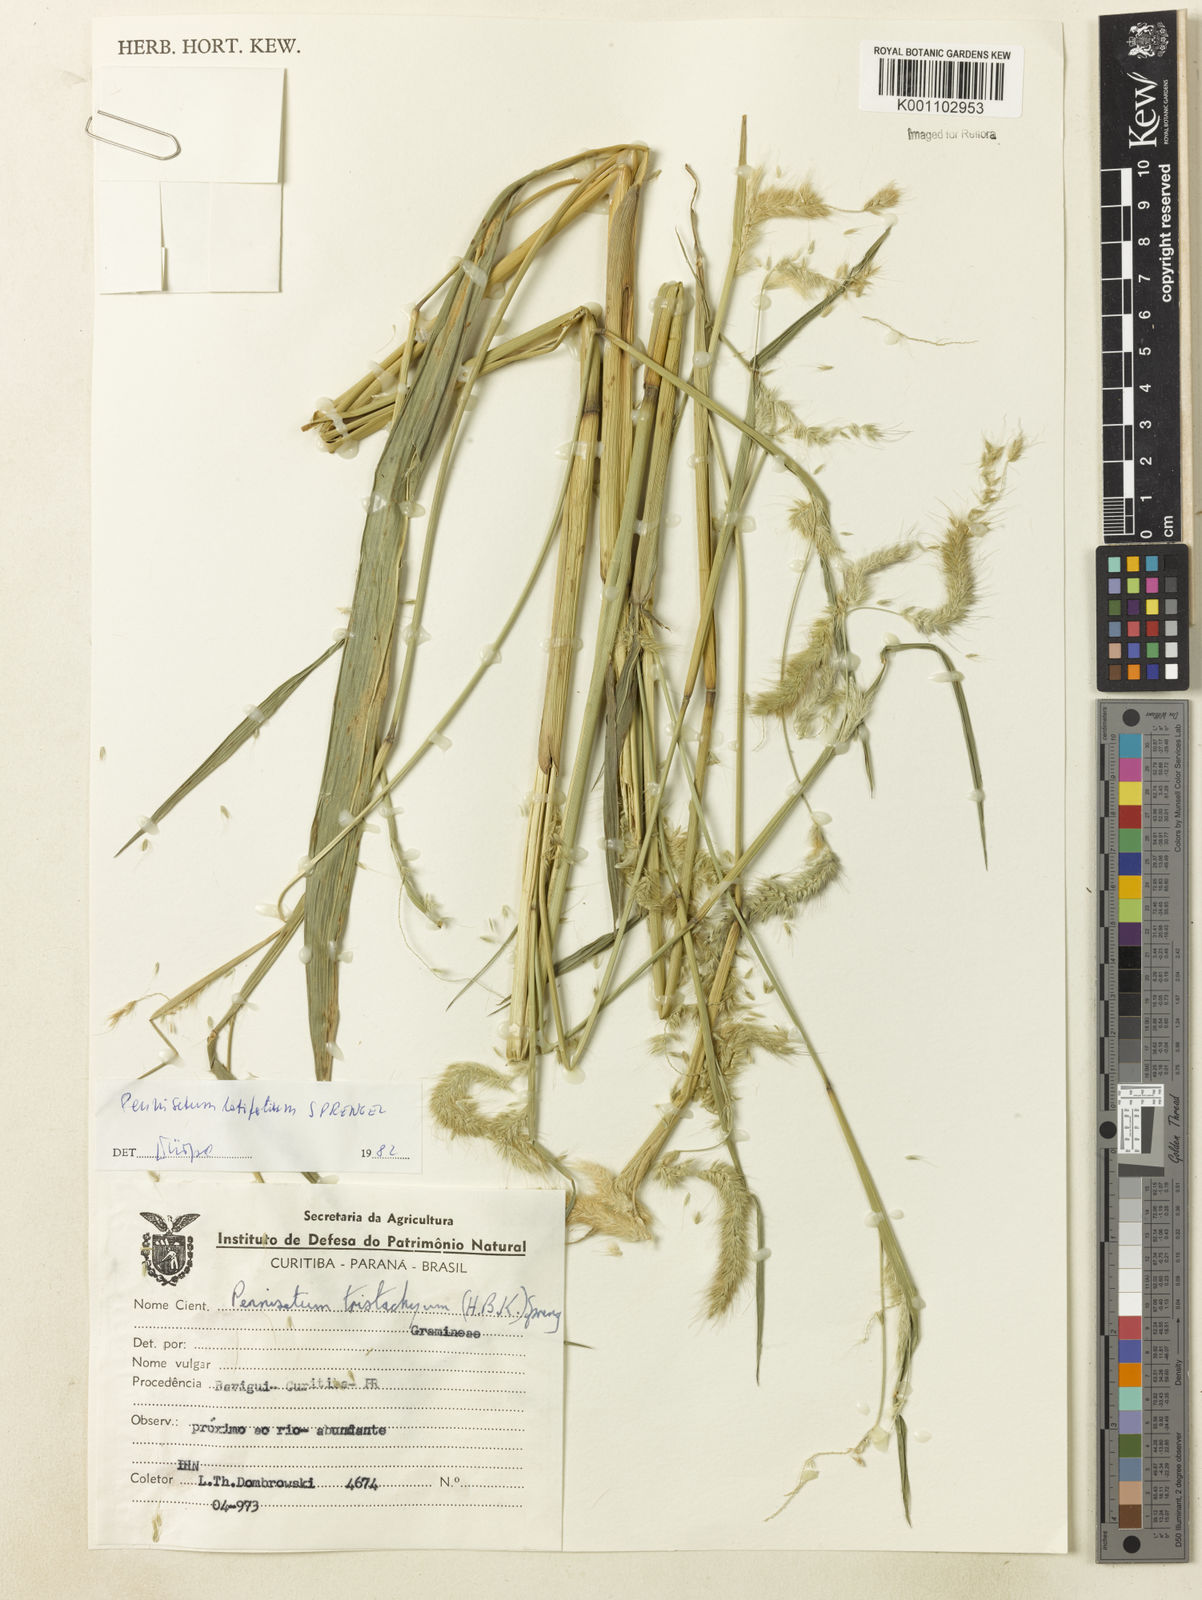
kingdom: Plantae
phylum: Tracheophyta
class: Liliopsida
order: Poales
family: Poaceae
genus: Cenchrus
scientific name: Cenchrus latifolius
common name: Sandbur
